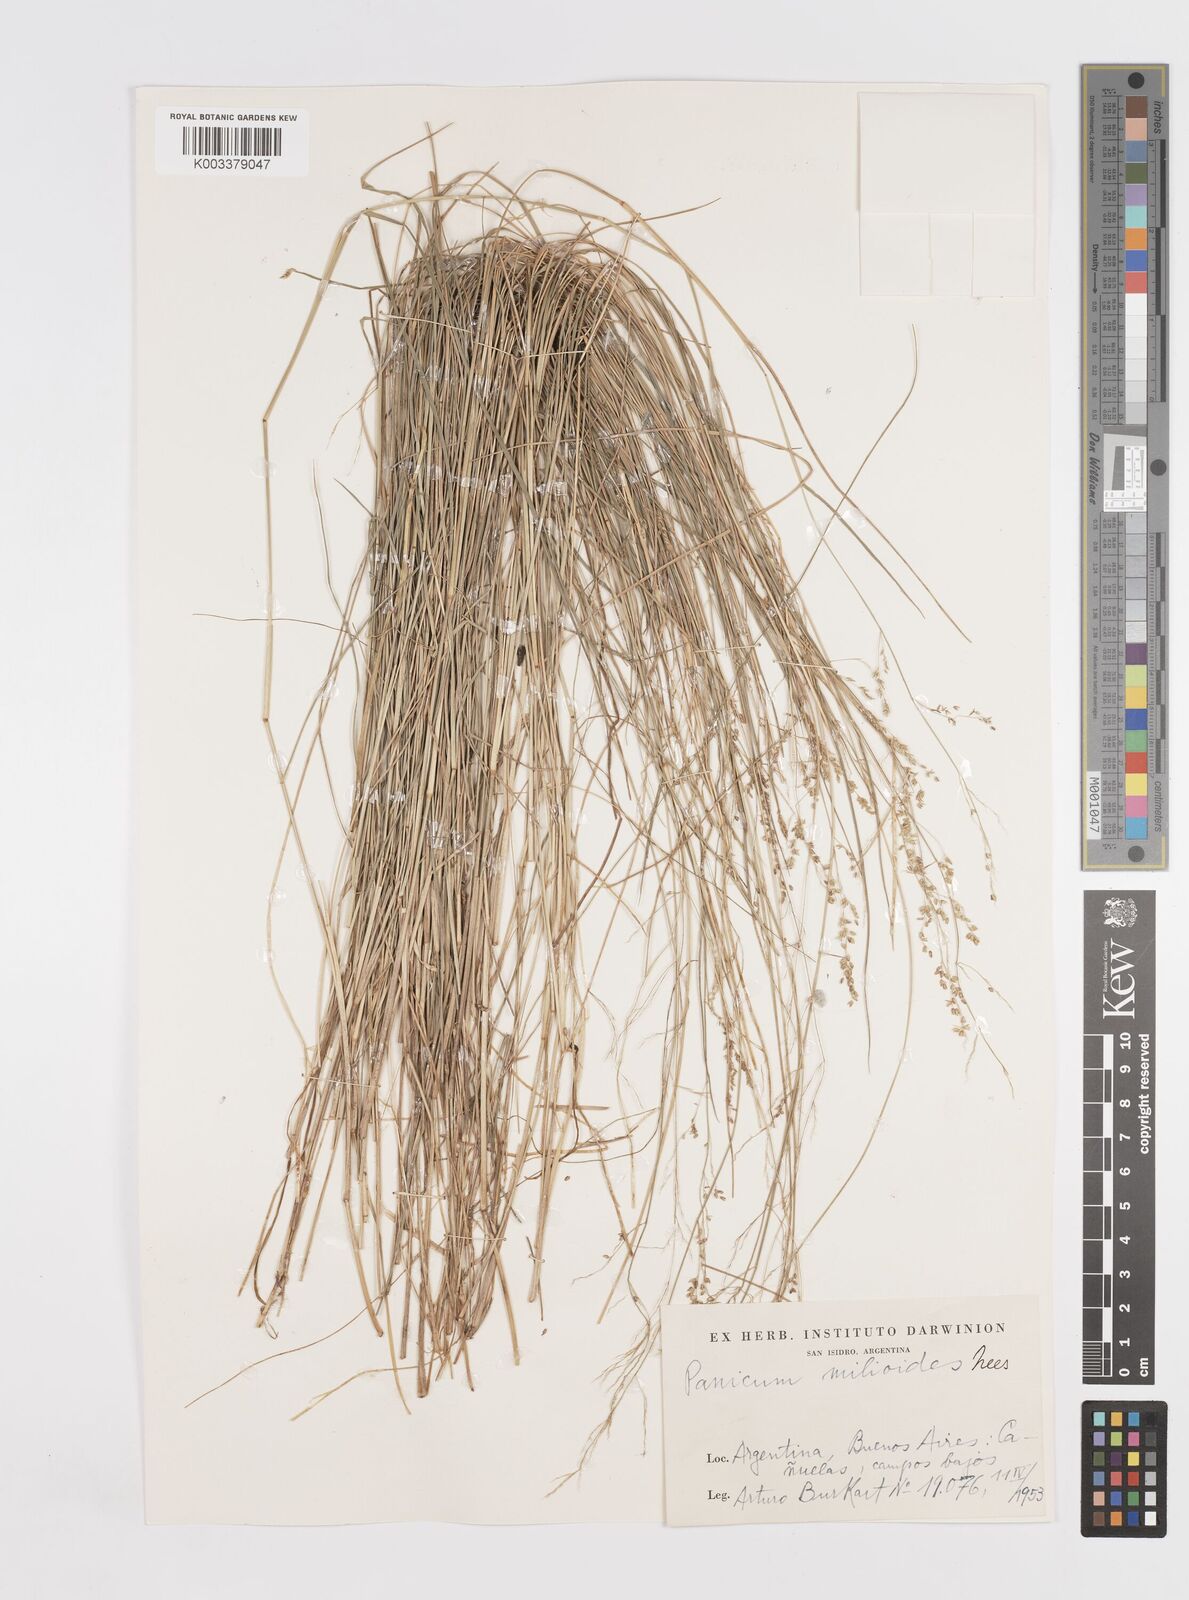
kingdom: Plantae
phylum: Tracheophyta
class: Liliopsida
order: Poales
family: Poaceae
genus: Steinchisma
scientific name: Steinchisma hians
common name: Gaping panic grass
